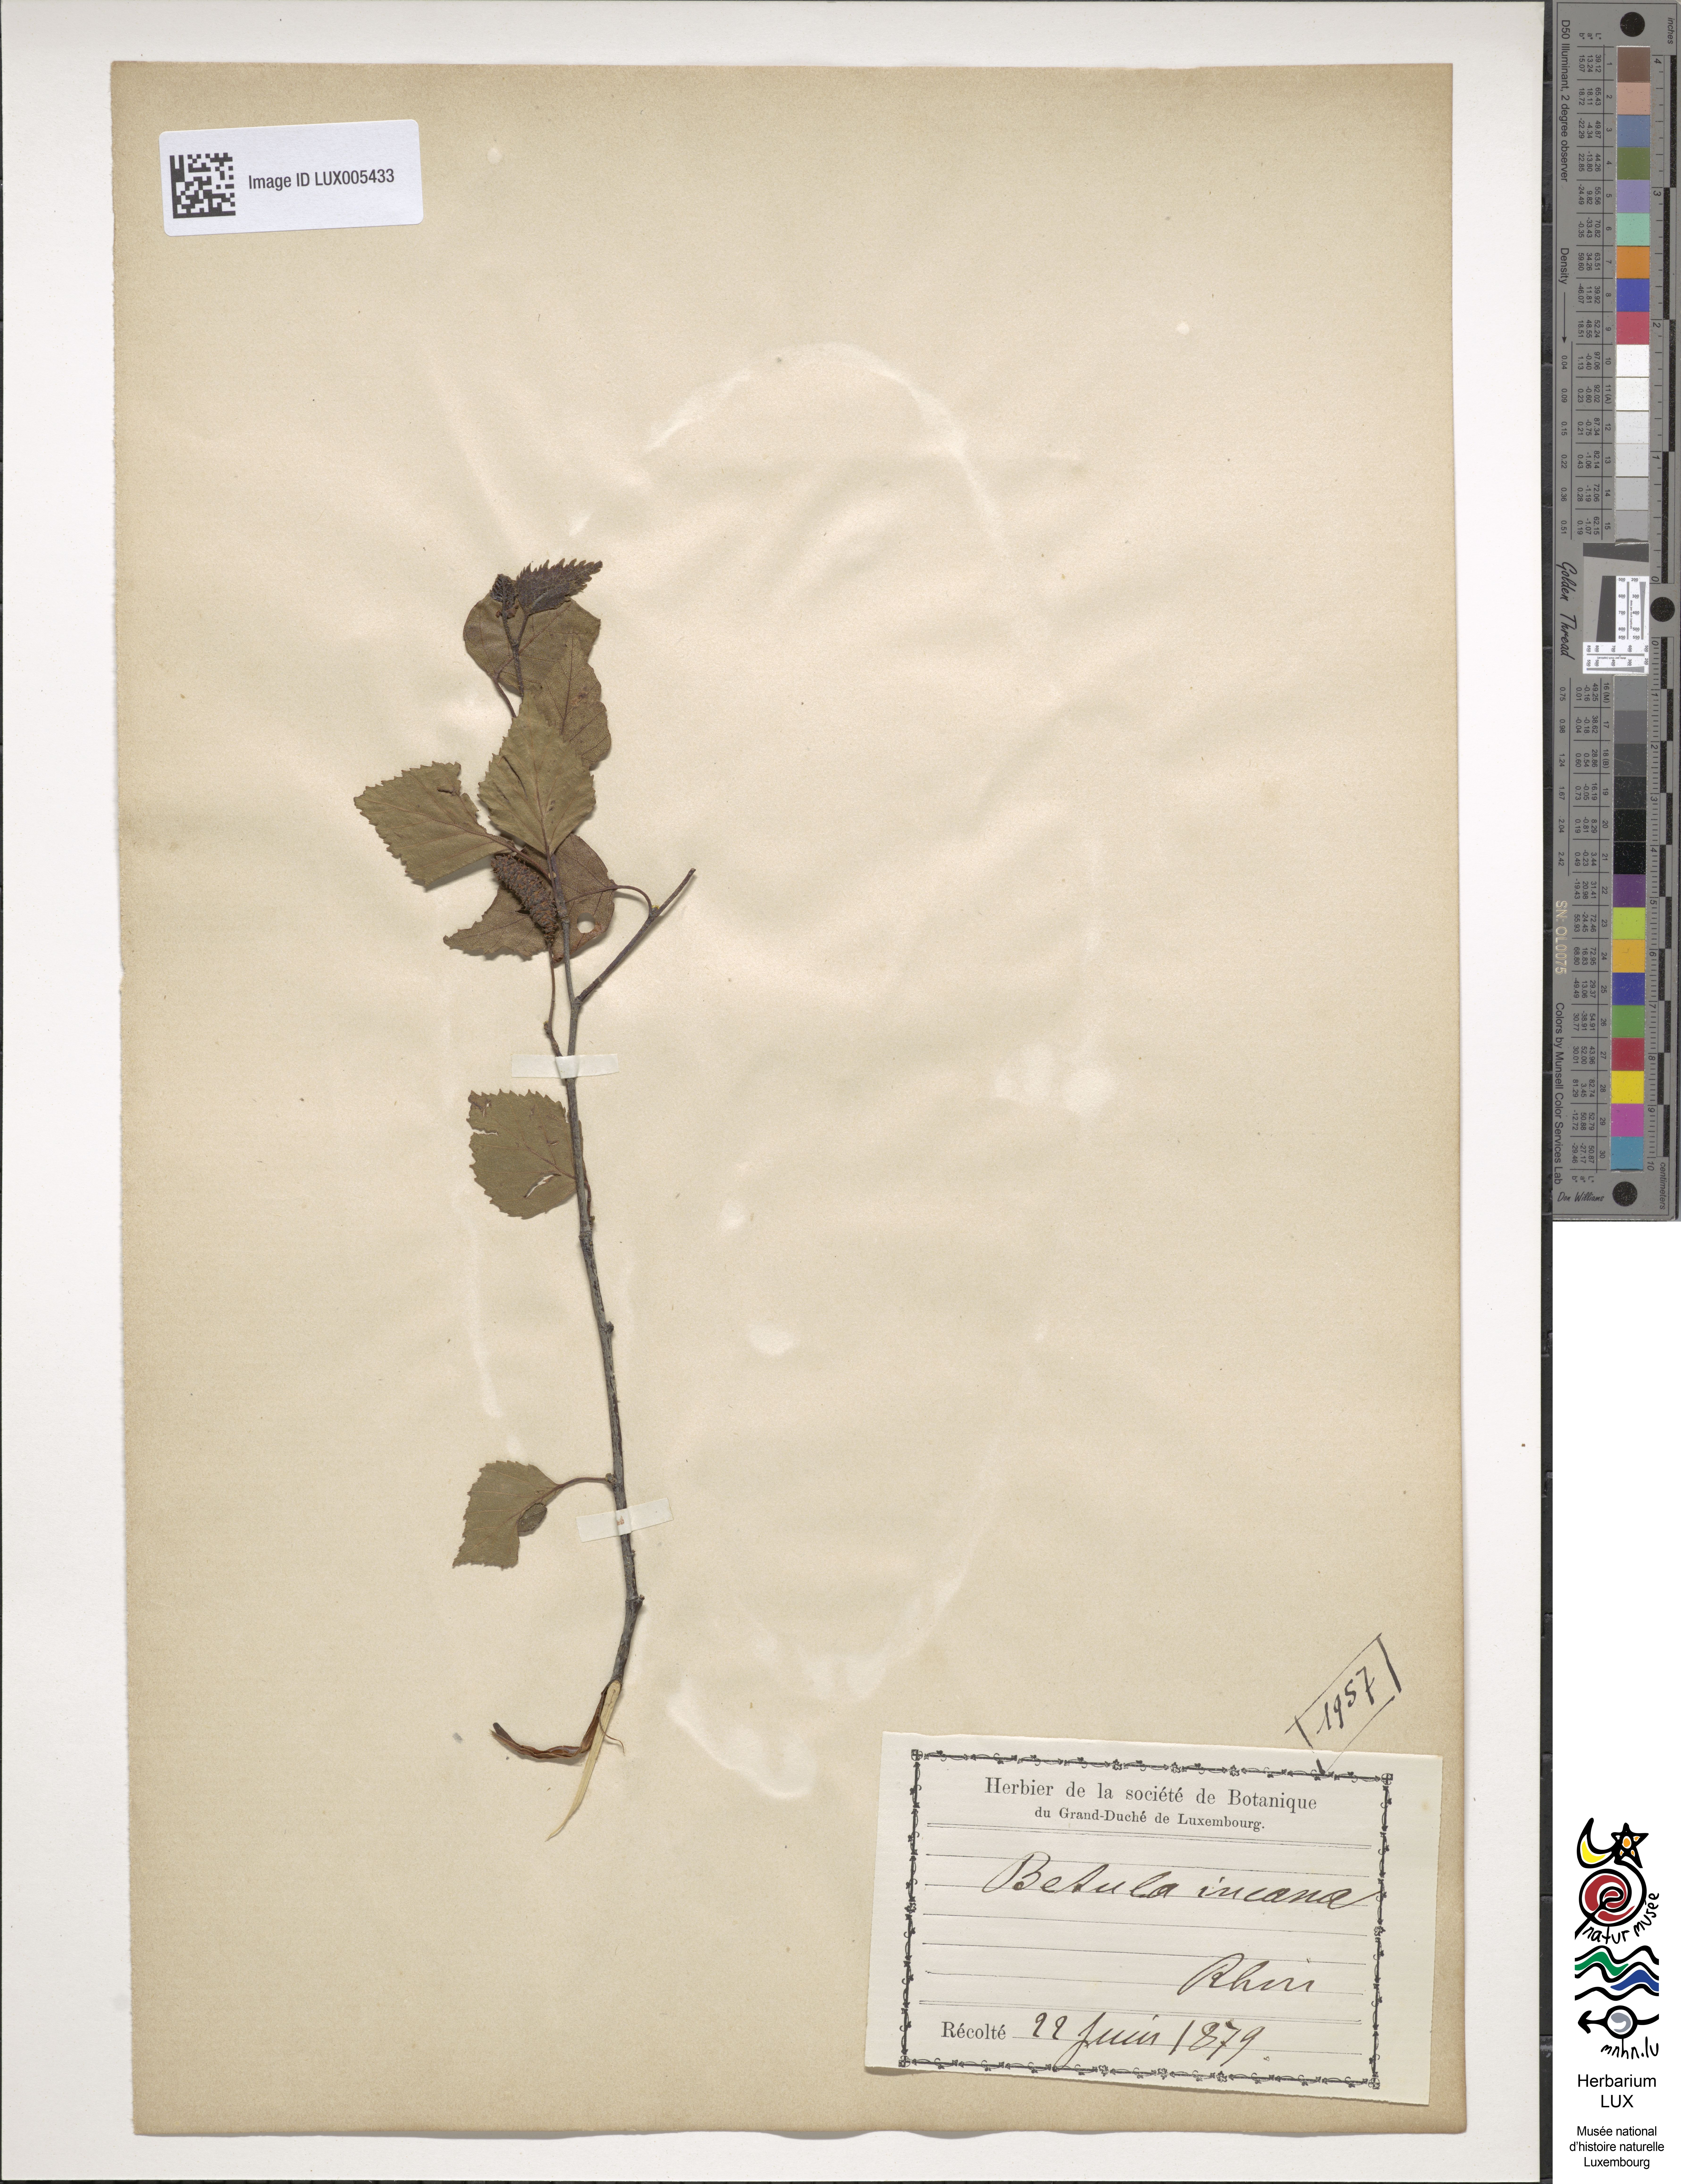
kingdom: Plantae
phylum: Tracheophyta
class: Magnoliopsida
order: Fagales
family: Betulaceae
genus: Alnus
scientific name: Alnus incana
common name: Grey alder
